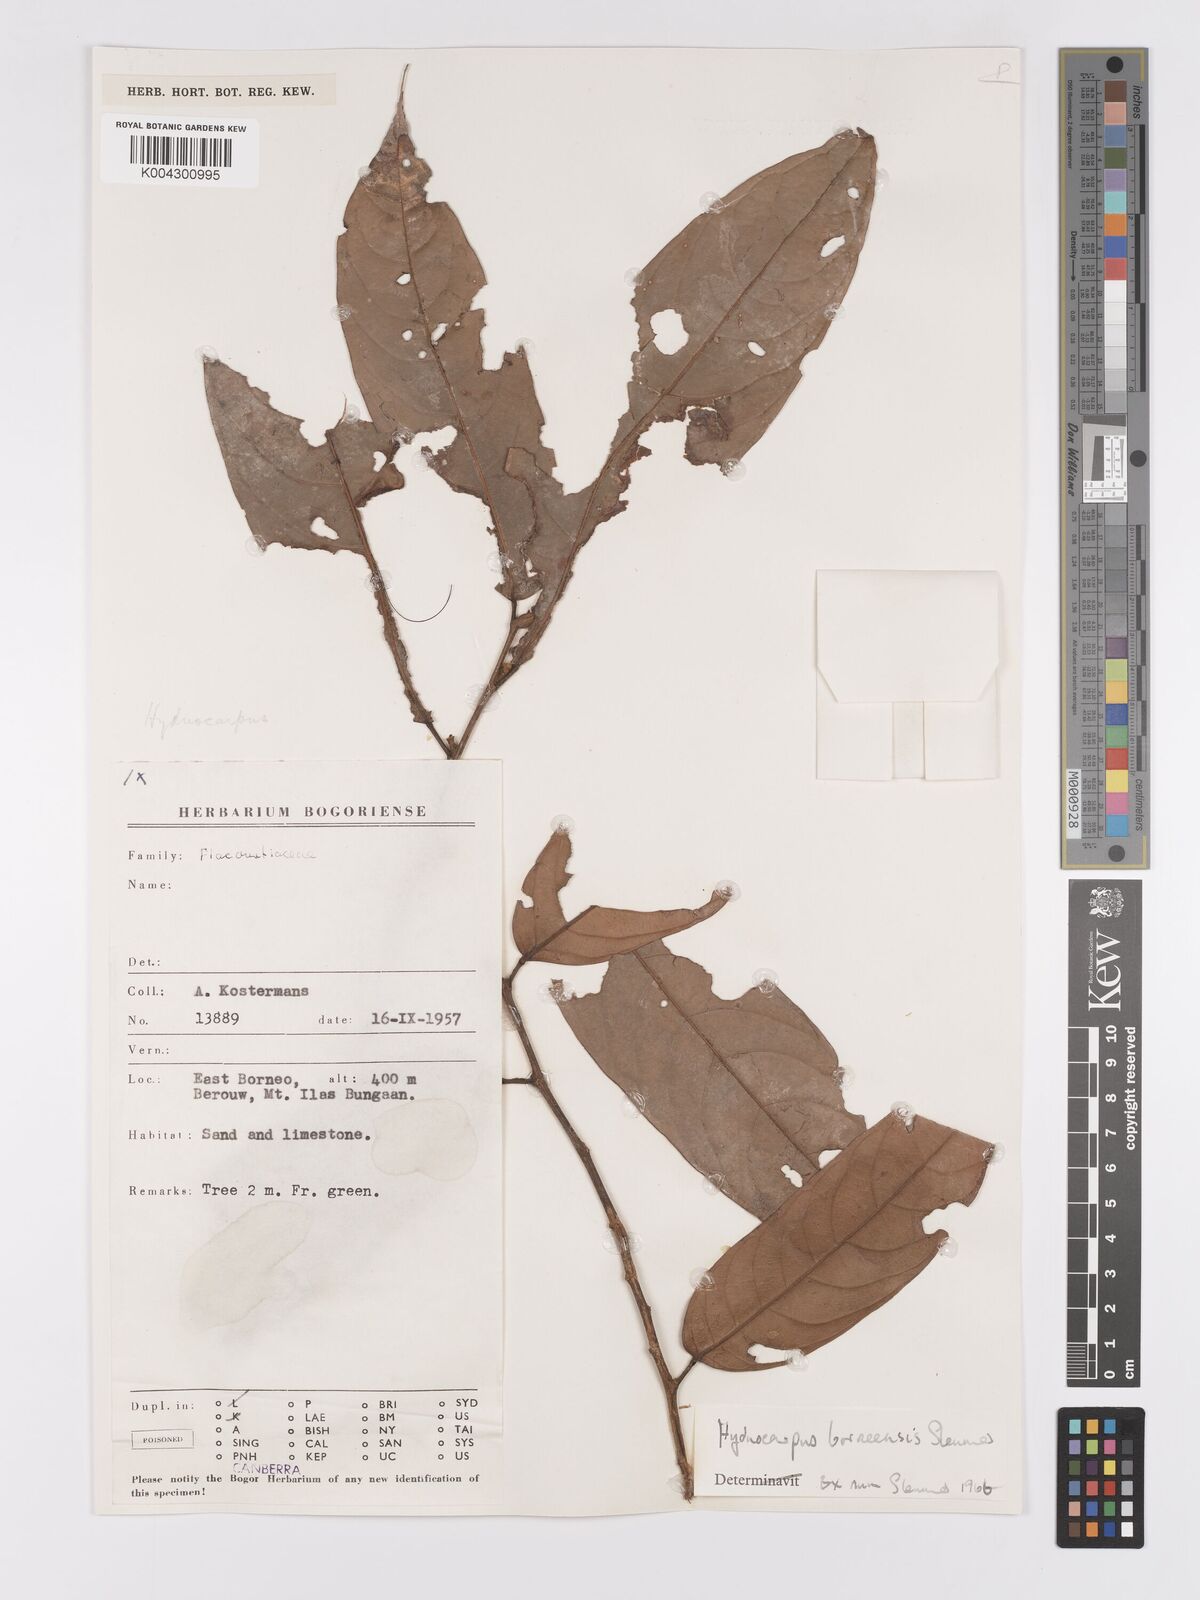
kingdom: Plantae
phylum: Tracheophyta
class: Magnoliopsida
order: Malpighiales
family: Achariaceae
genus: Hydnocarpus
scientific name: Hydnocarpus borneensis
